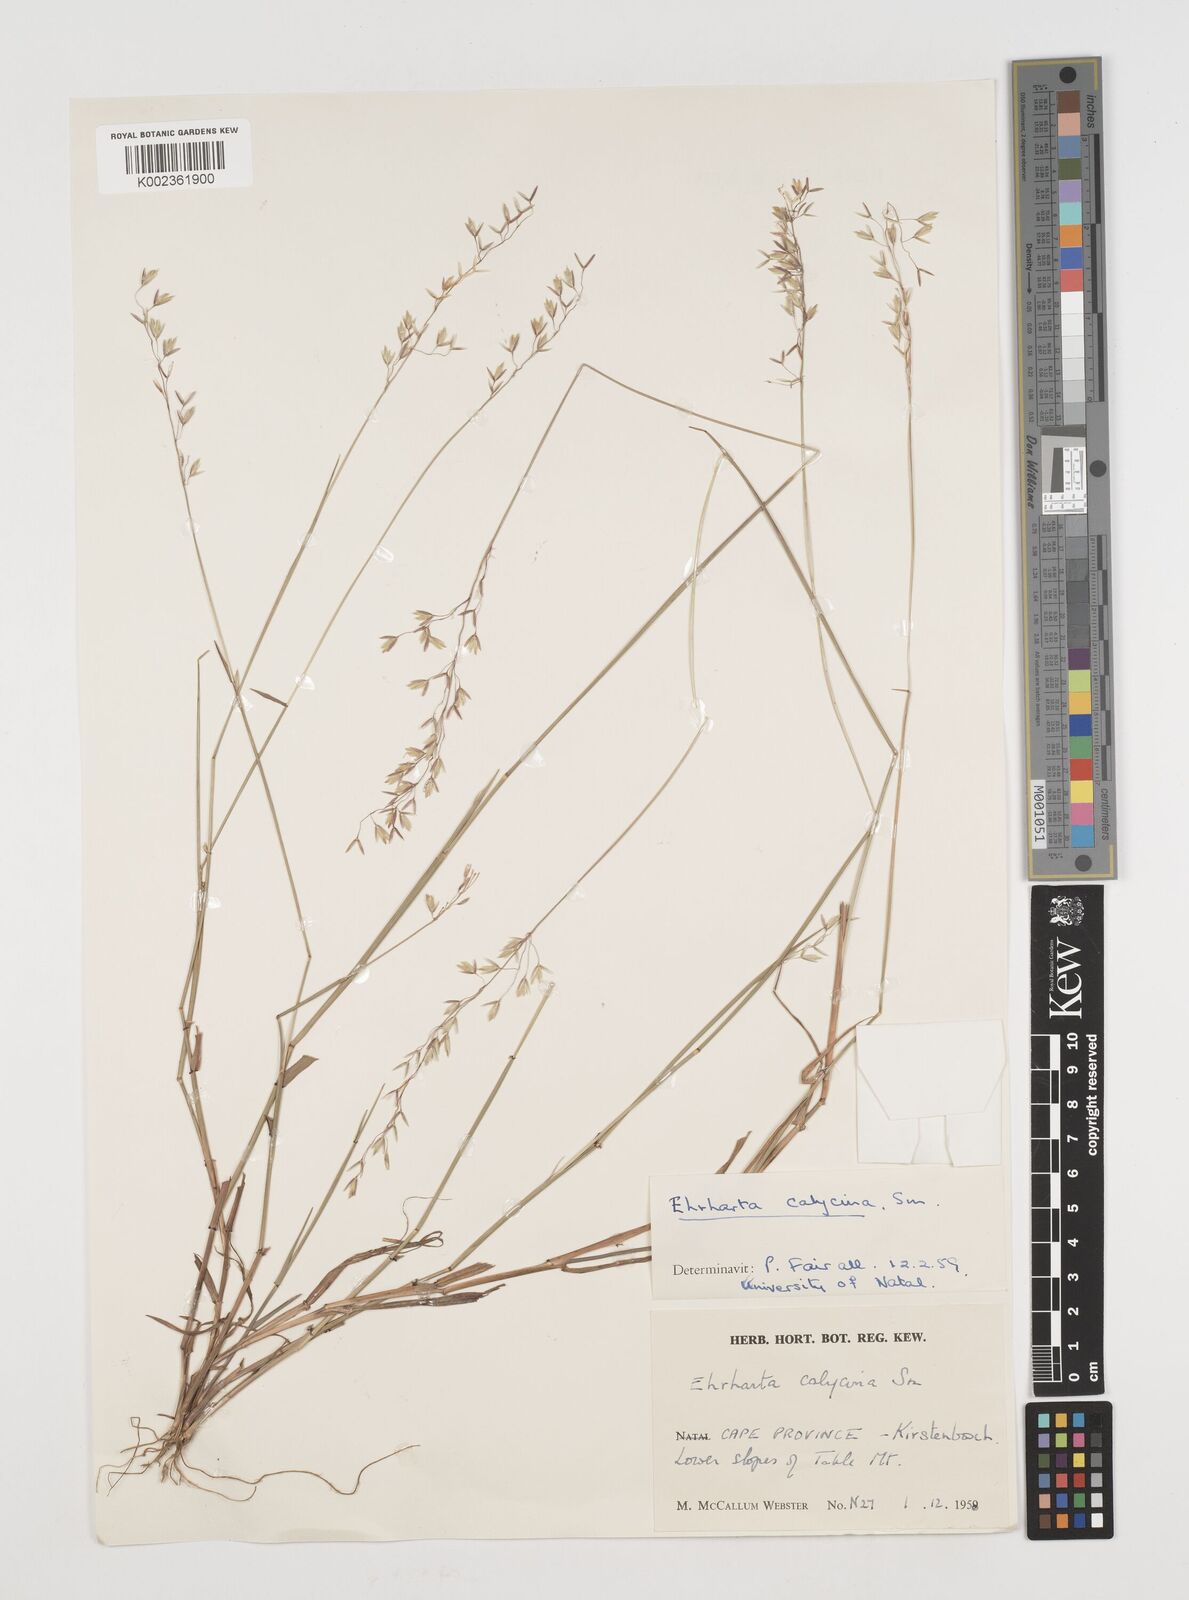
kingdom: Plantae
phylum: Tracheophyta
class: Liliopsida
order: Poales
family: Poaceae
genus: Ehrharta
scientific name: Ehrharta calycina
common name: Perennial veldtgrass
